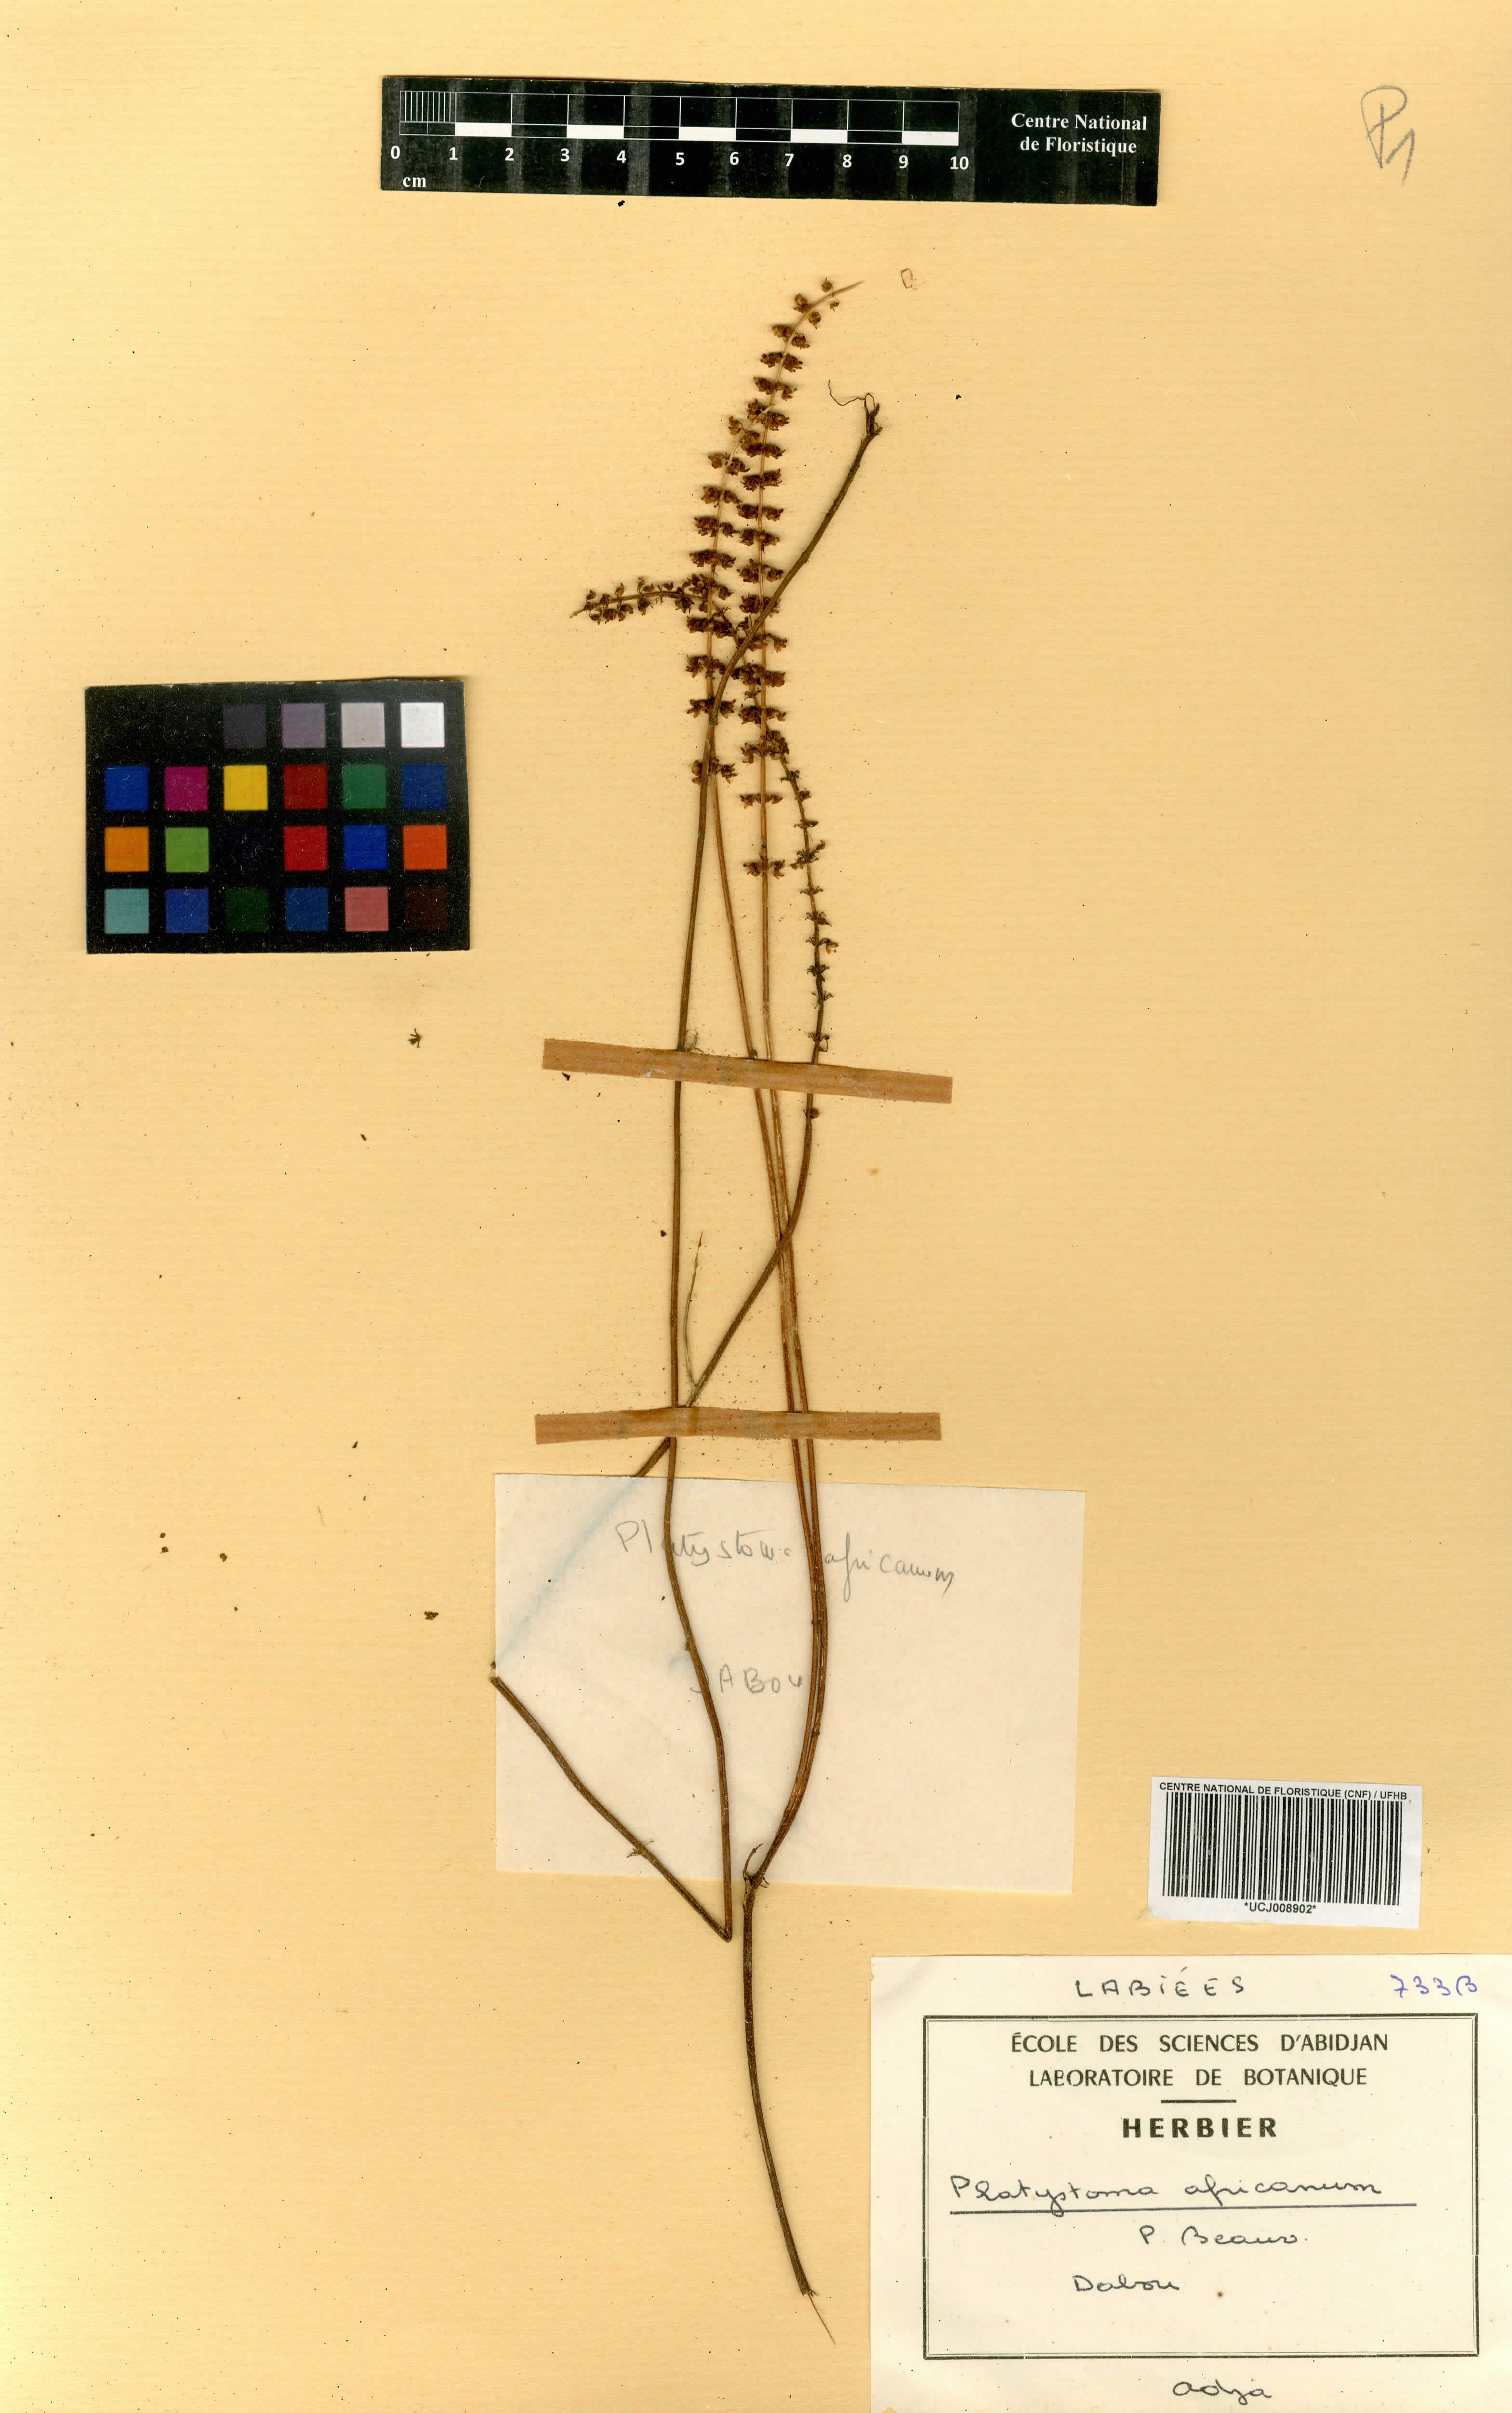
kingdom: Plantae
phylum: Tracheophyta
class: Magnoliopsida
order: Lamiales
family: Lamiaceae
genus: Platostoma
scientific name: Platostoma africanum
